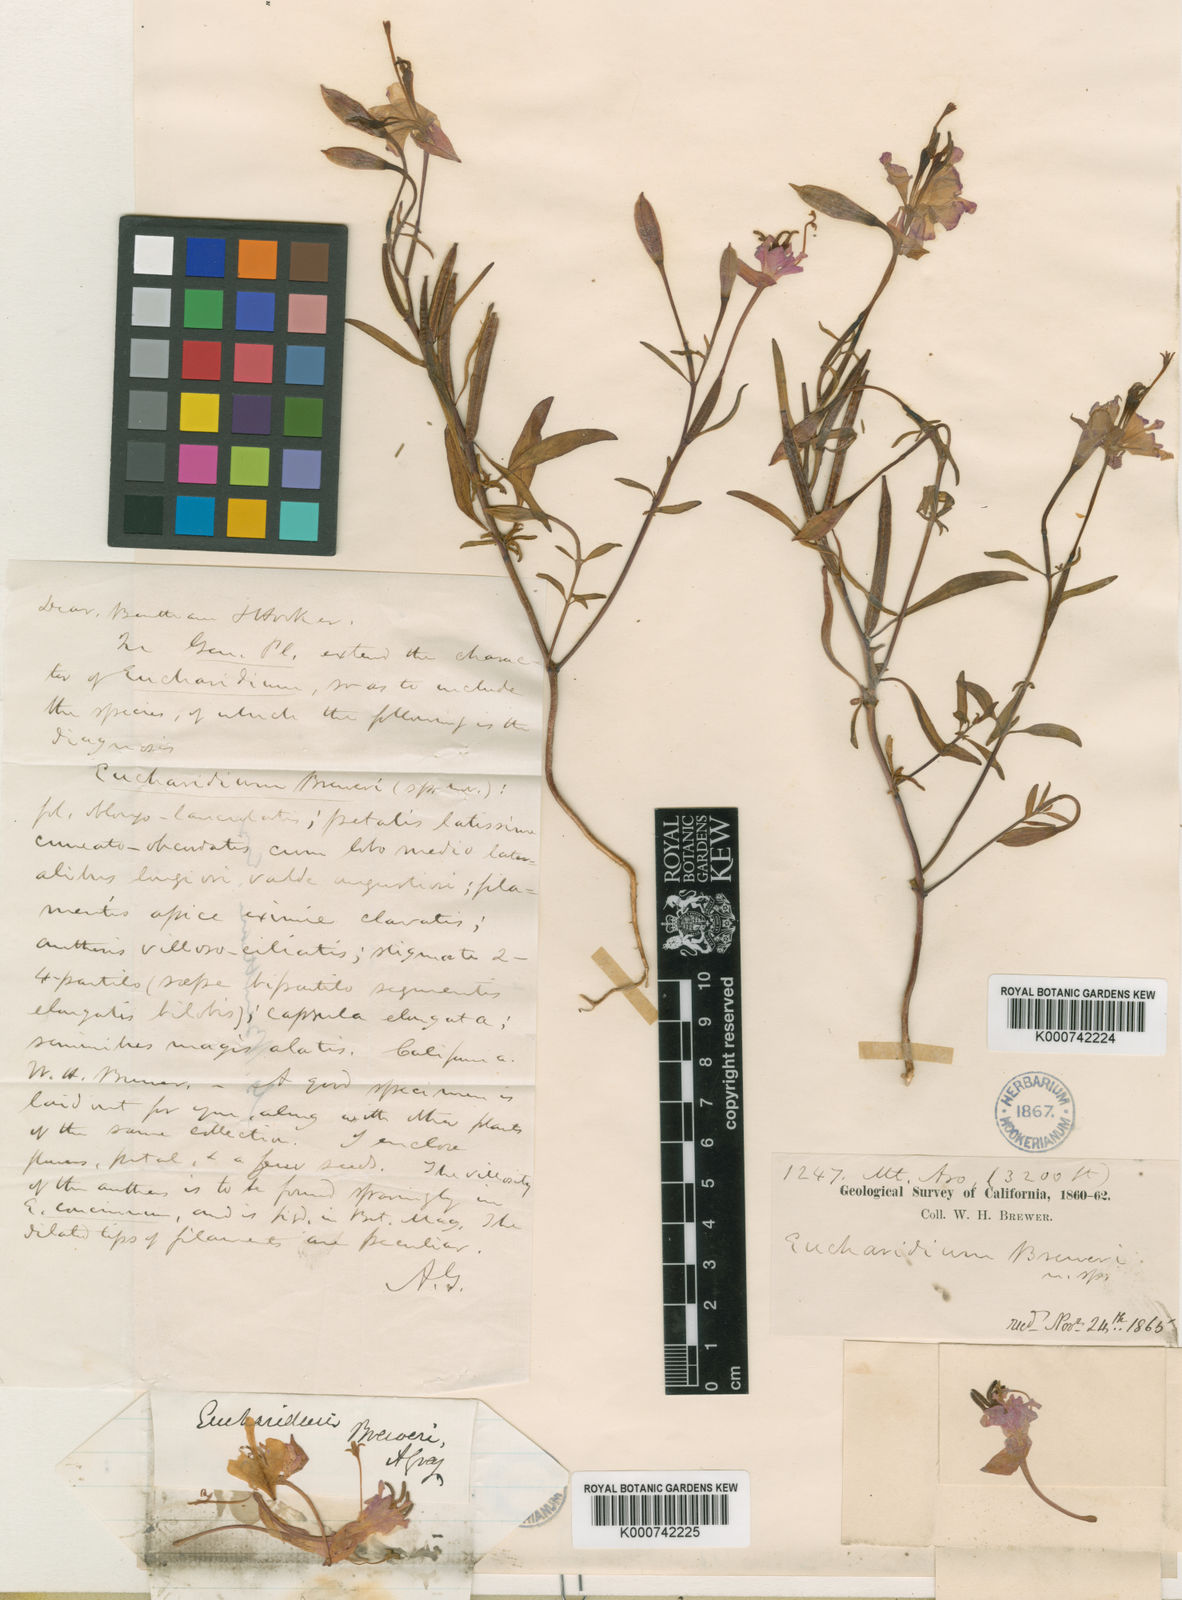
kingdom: Plantae
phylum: Tracheophyta
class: Magnoliopsida
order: Myrtales
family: Onagraceae
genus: Clarkia
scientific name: Clarkia breweri
